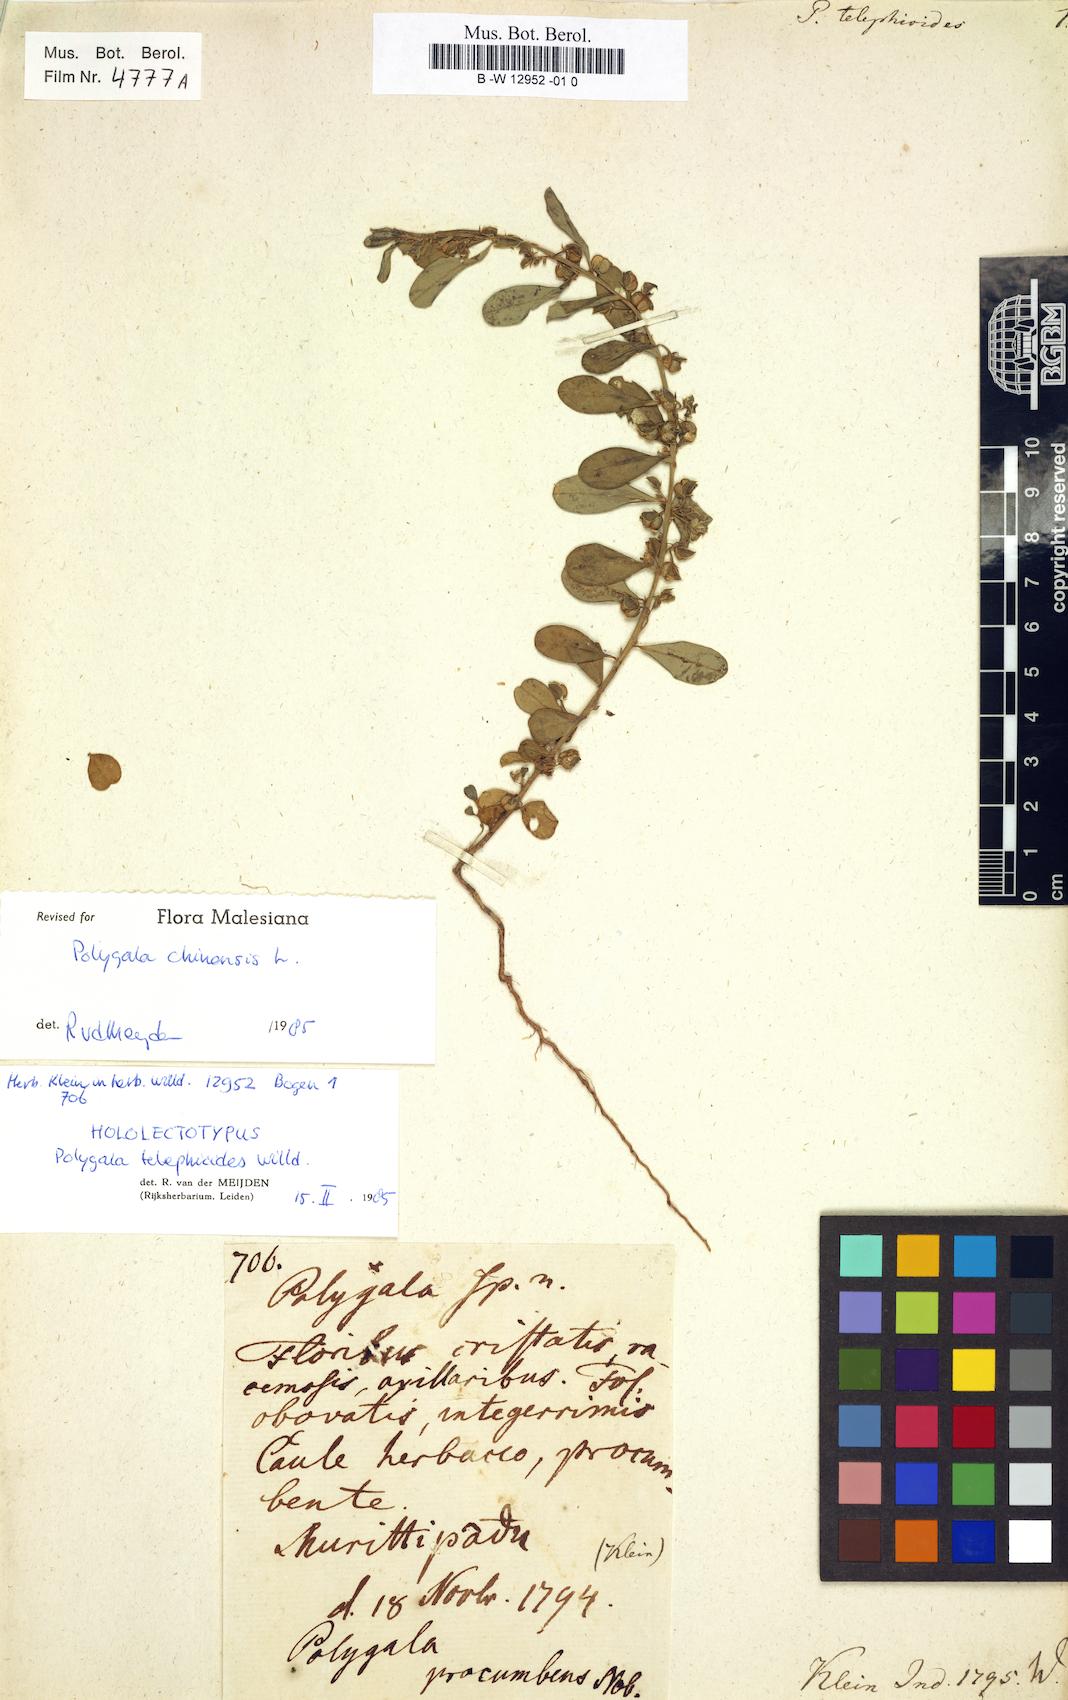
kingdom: Plantae
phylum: Tracheophyta
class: Magnoliopsida
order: Fabales
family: Polygalaceae
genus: Polygala
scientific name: Polygala telephioides
